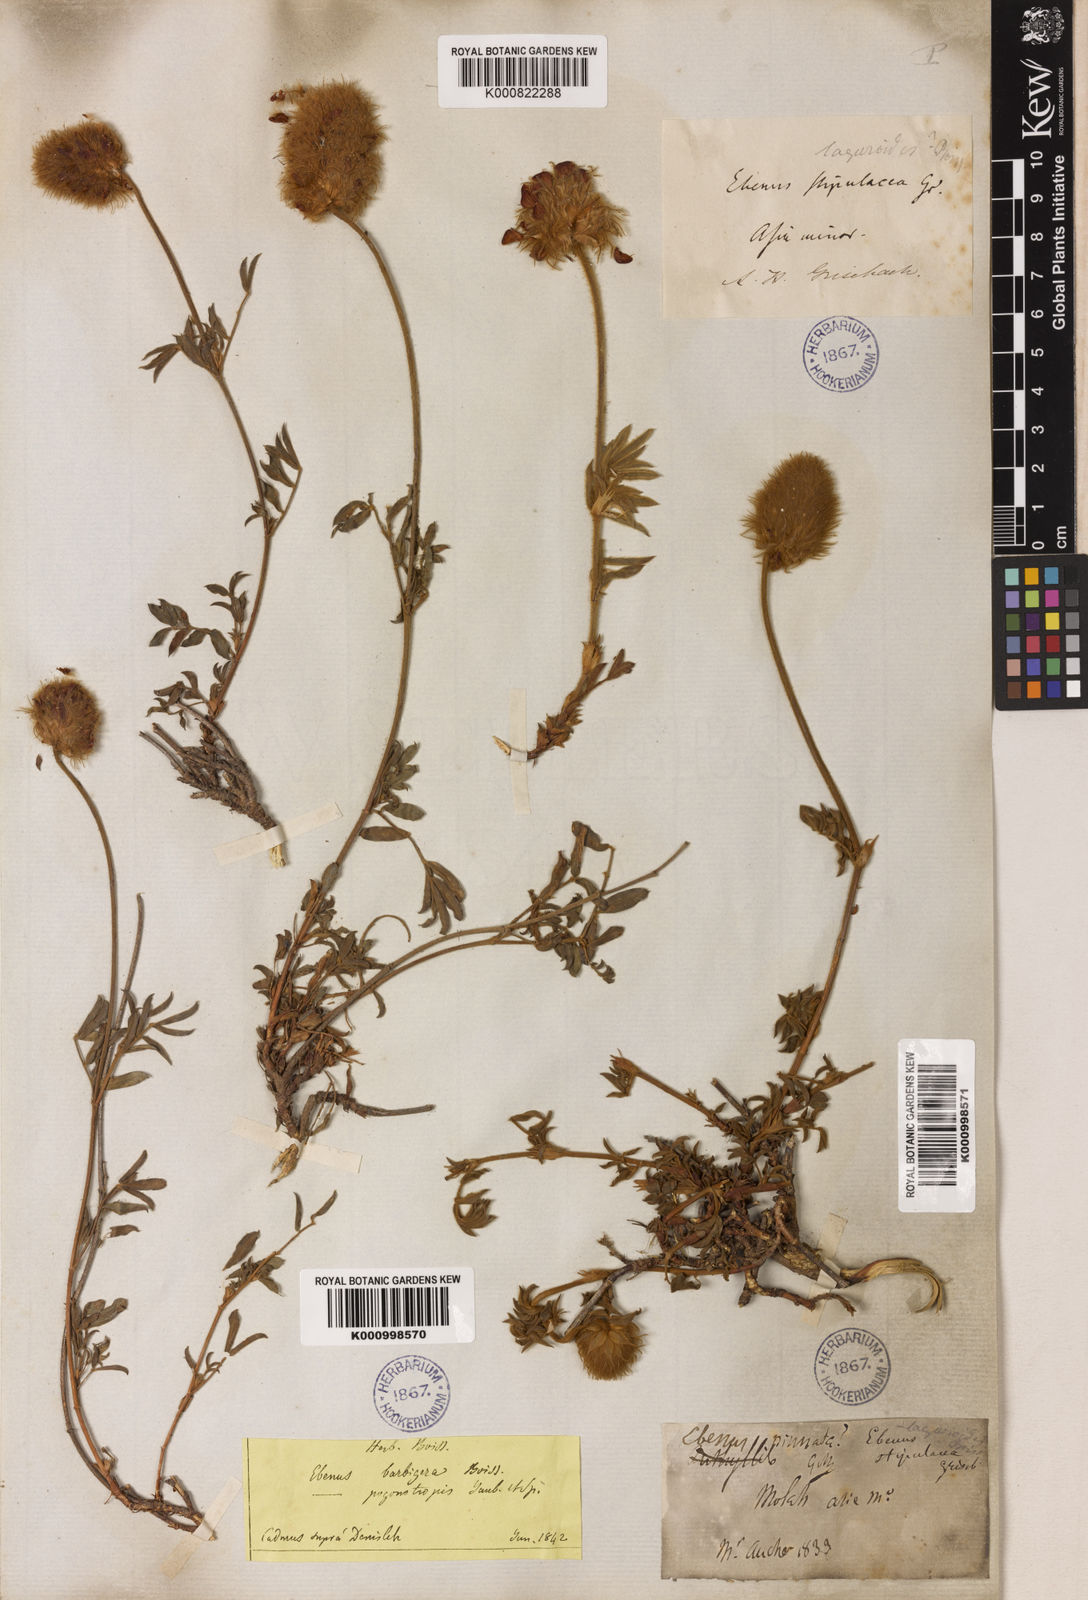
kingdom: Plantae
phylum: Tracheophyta
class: Magnoliopsida
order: Fabales
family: Fabaceae
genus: Ebenus
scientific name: Ebenus barbigera
